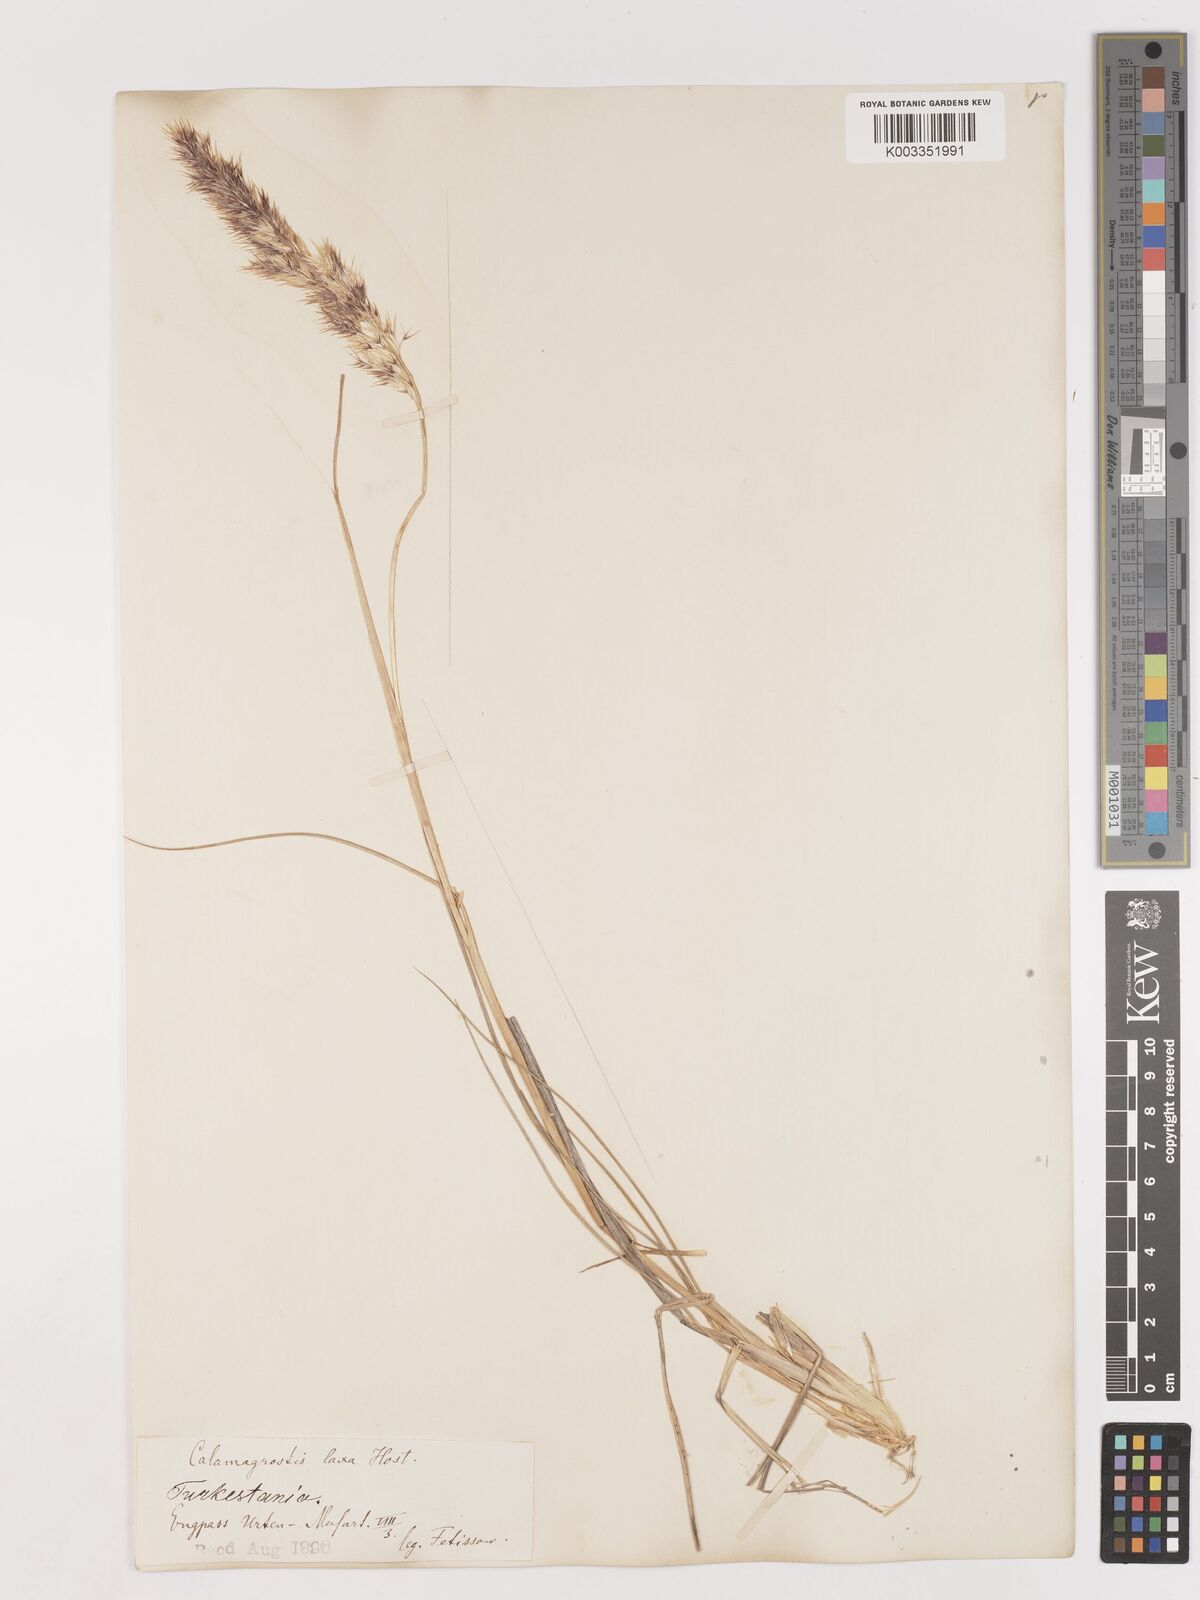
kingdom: Plantae
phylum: Tracheophyta
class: Liliopsida
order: Poales
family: Poaceae
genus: Calamagrostis
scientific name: Calamagrostis pseudophragmites
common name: Coastal small-reed
